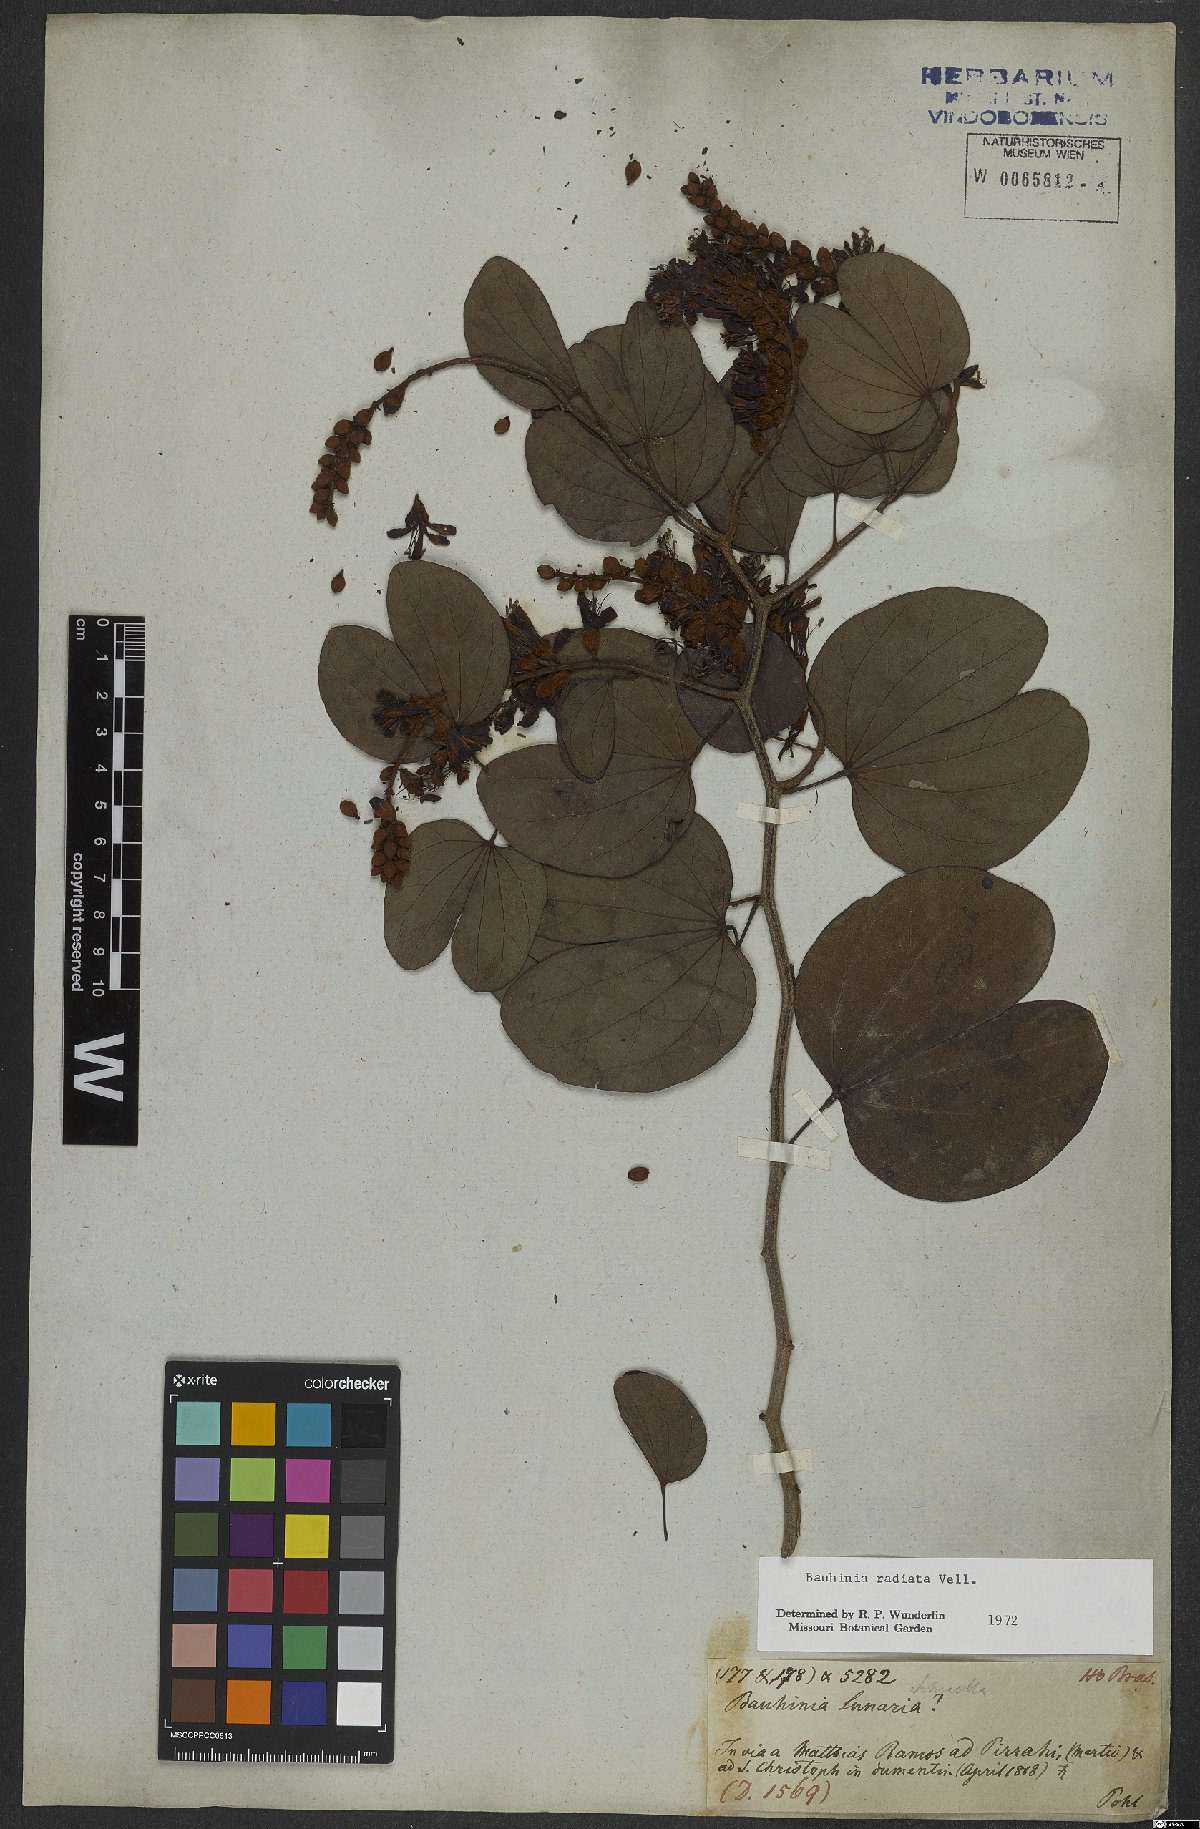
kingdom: Plantae
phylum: Tracheophyta
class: Magnoliopsida
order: Fabales
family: Fabaceae
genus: Schnella
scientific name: Schnella macrostachya
